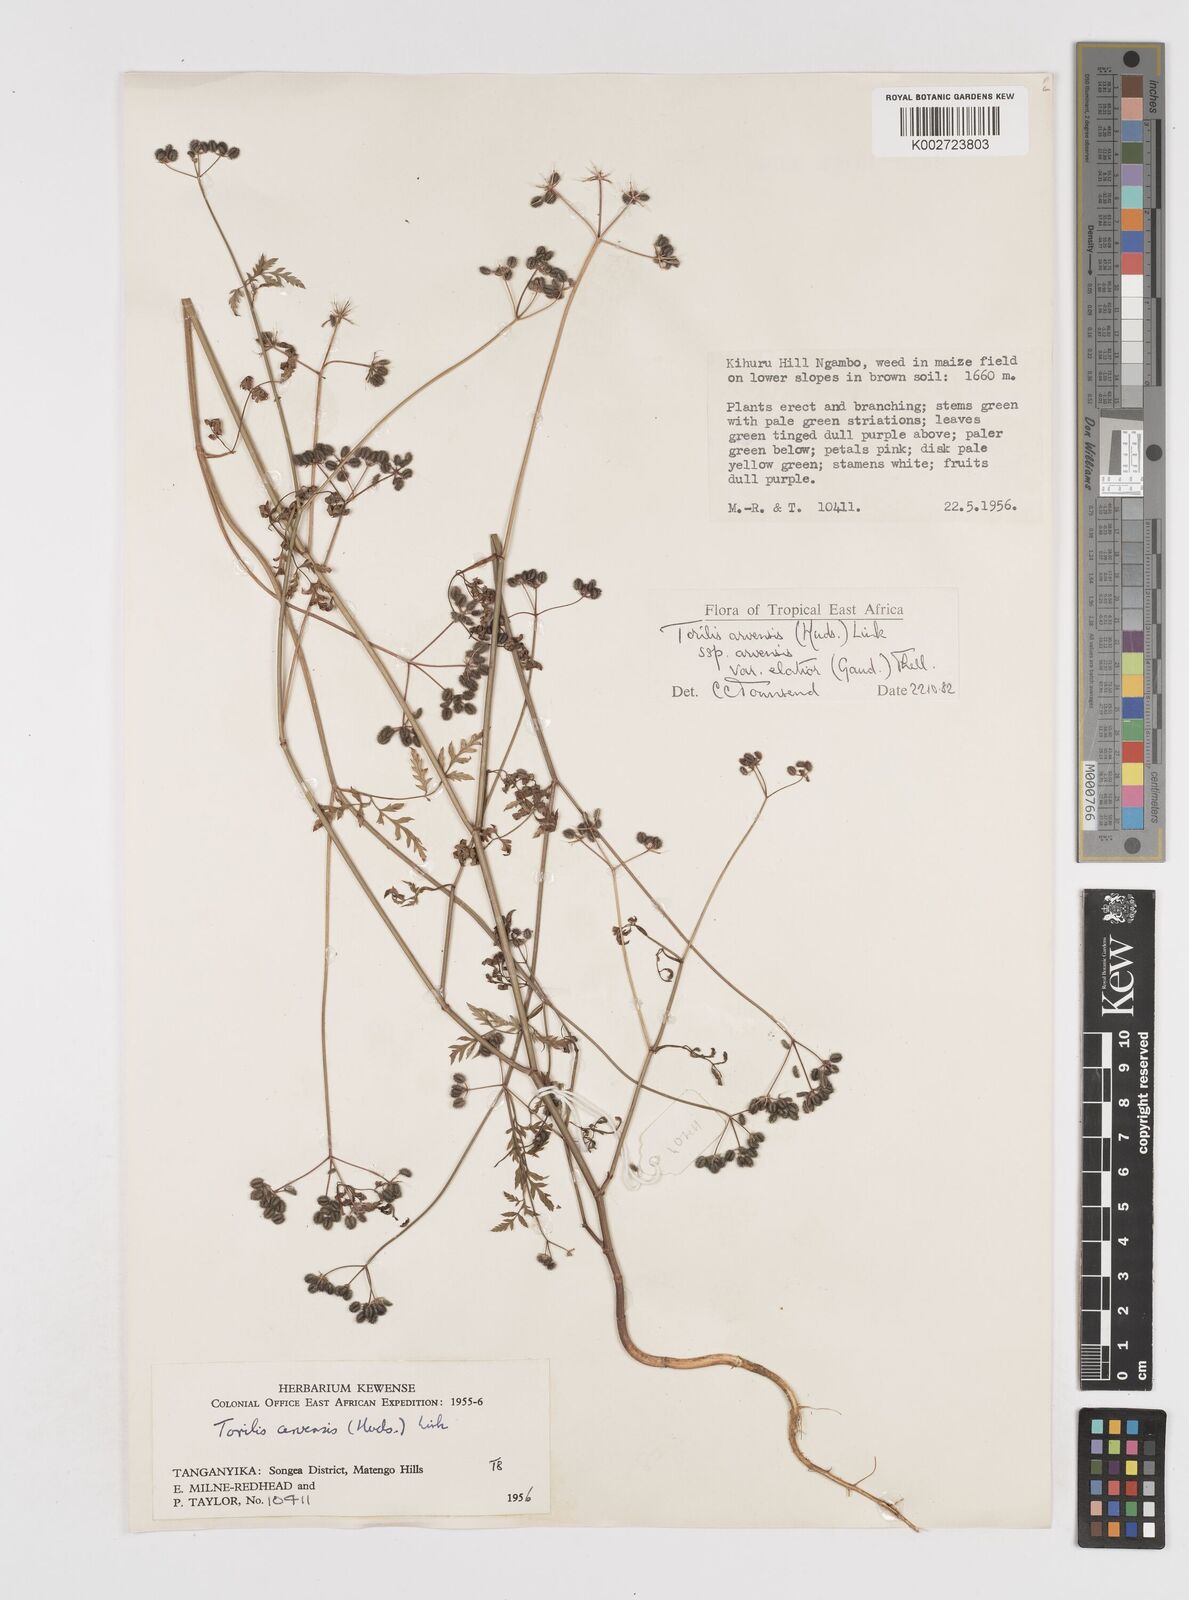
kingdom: Plantae
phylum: Tracheophyta
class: Magnoliopsida
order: Apiales
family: Apiaceae
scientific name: Apiaceae
